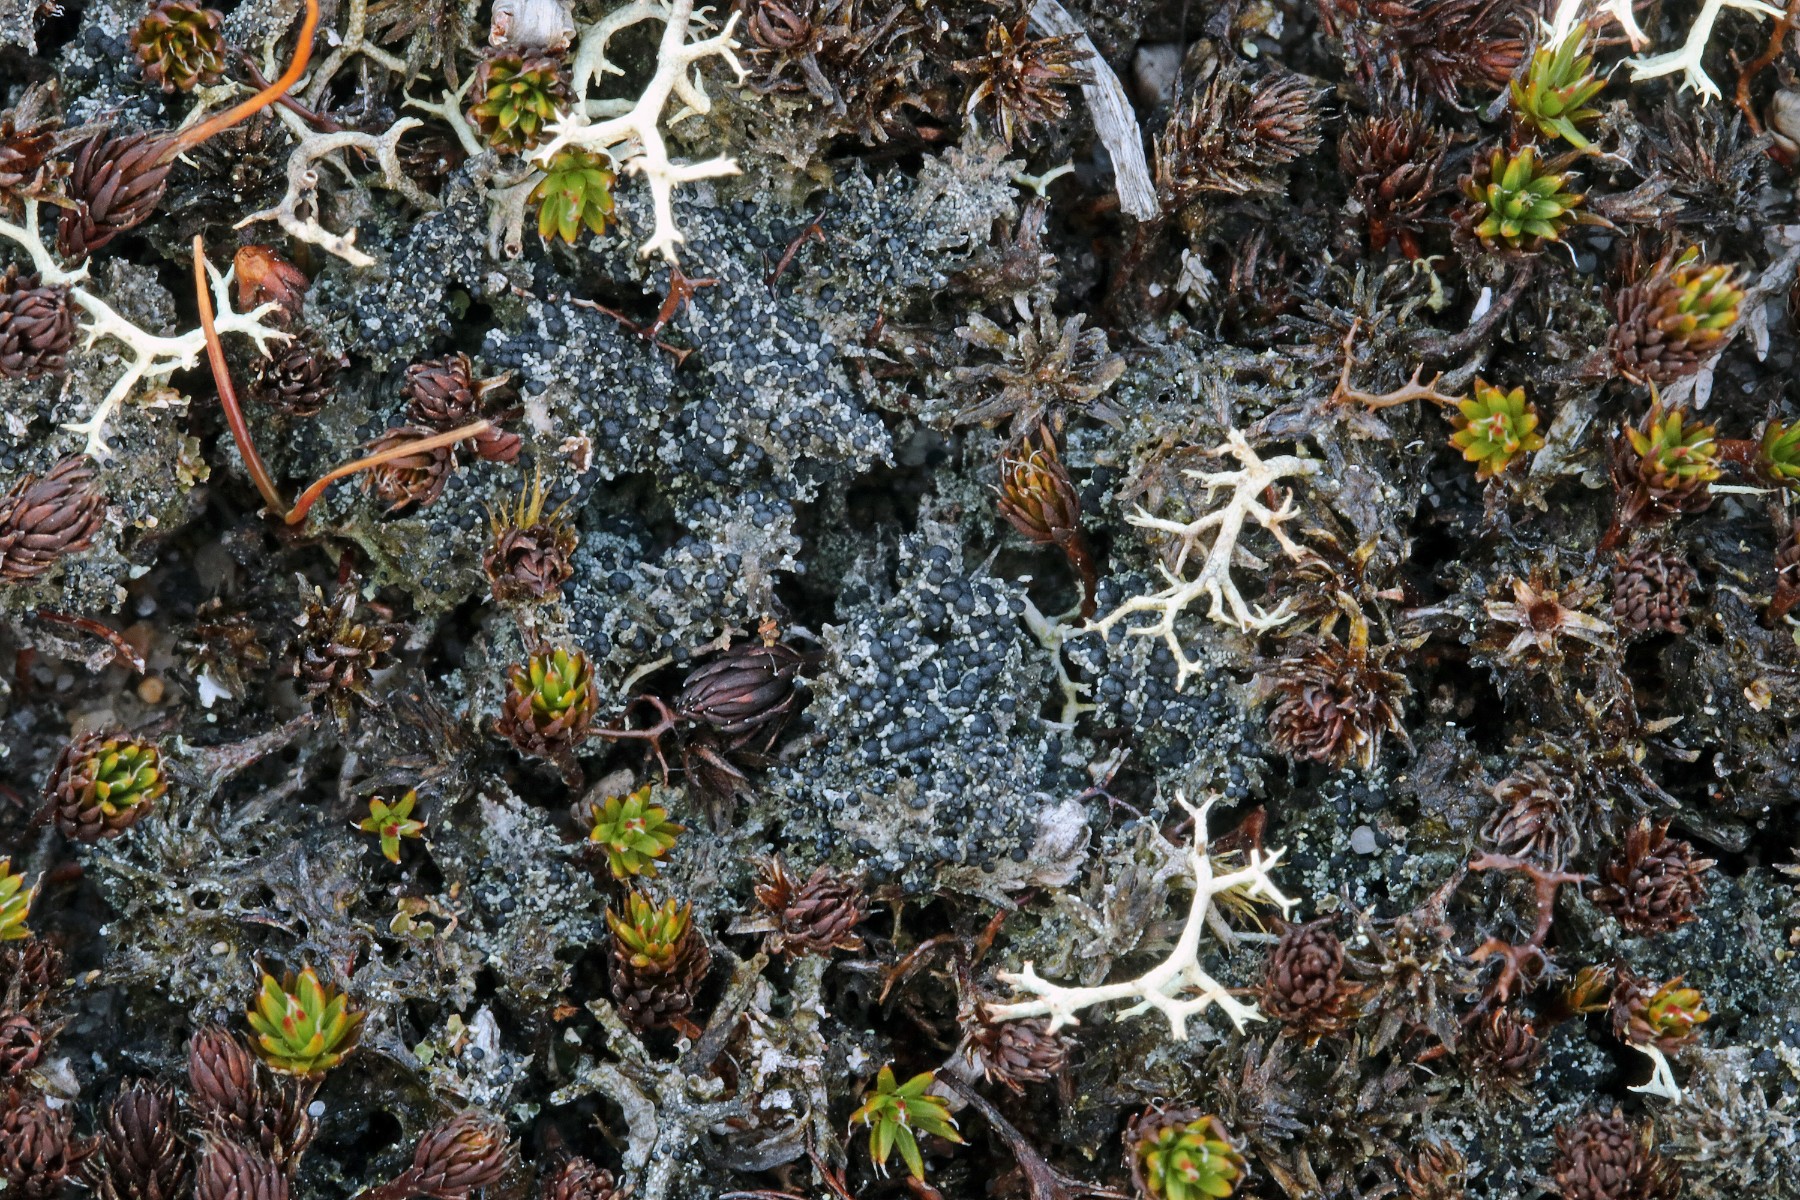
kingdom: Fungi
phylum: Ascomycota
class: Lecanoromycetes
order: Lecanorales
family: Byssolomataceae
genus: Micarea
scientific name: Micarea lignaria
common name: tørve-knaplav
